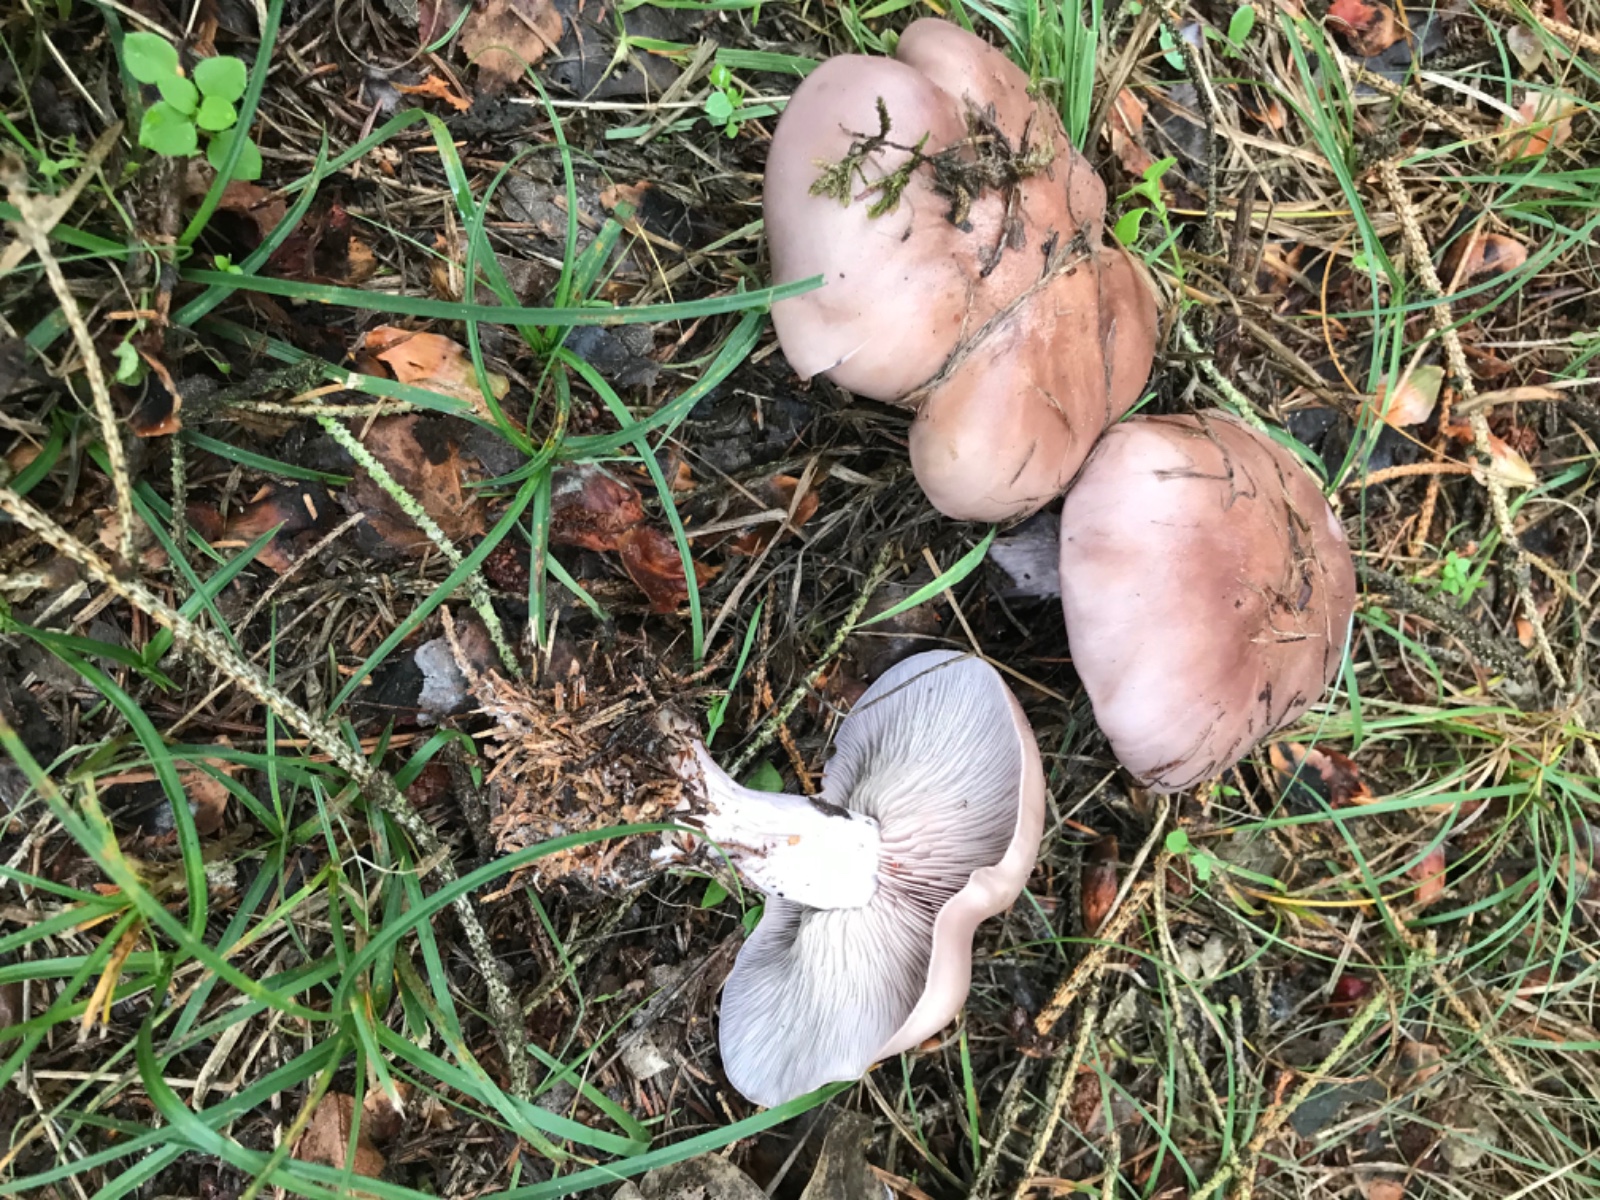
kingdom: Fungi
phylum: Basidiomycota
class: Agaricomycetes
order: Agaricales
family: Tricholomataceae
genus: Lepista
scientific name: Lepista nuda
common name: violet hekseringshat
